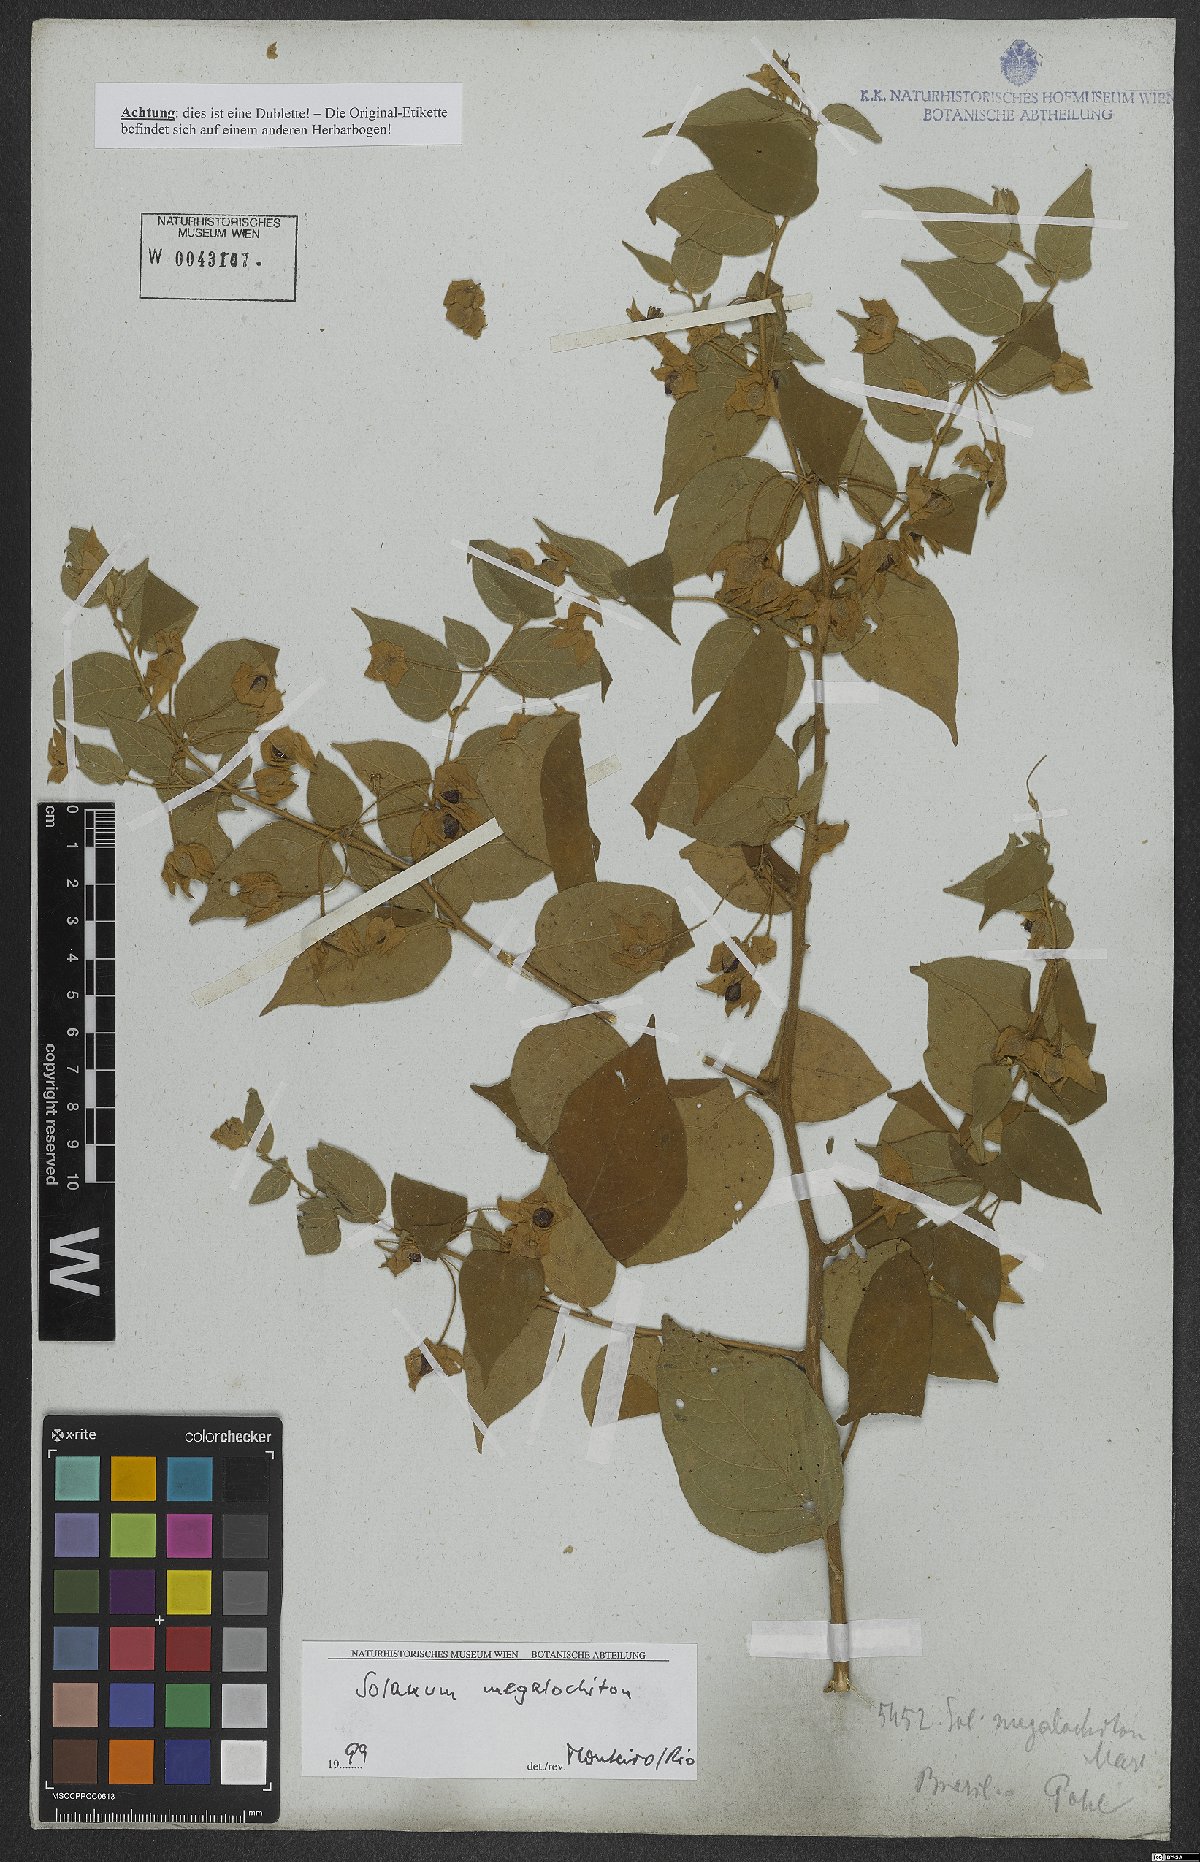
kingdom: Plantae
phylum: Tracheophyta
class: Magnoliopsida
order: Solanales
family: Solanaceae
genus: Solanum
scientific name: Solanum megalochiton
